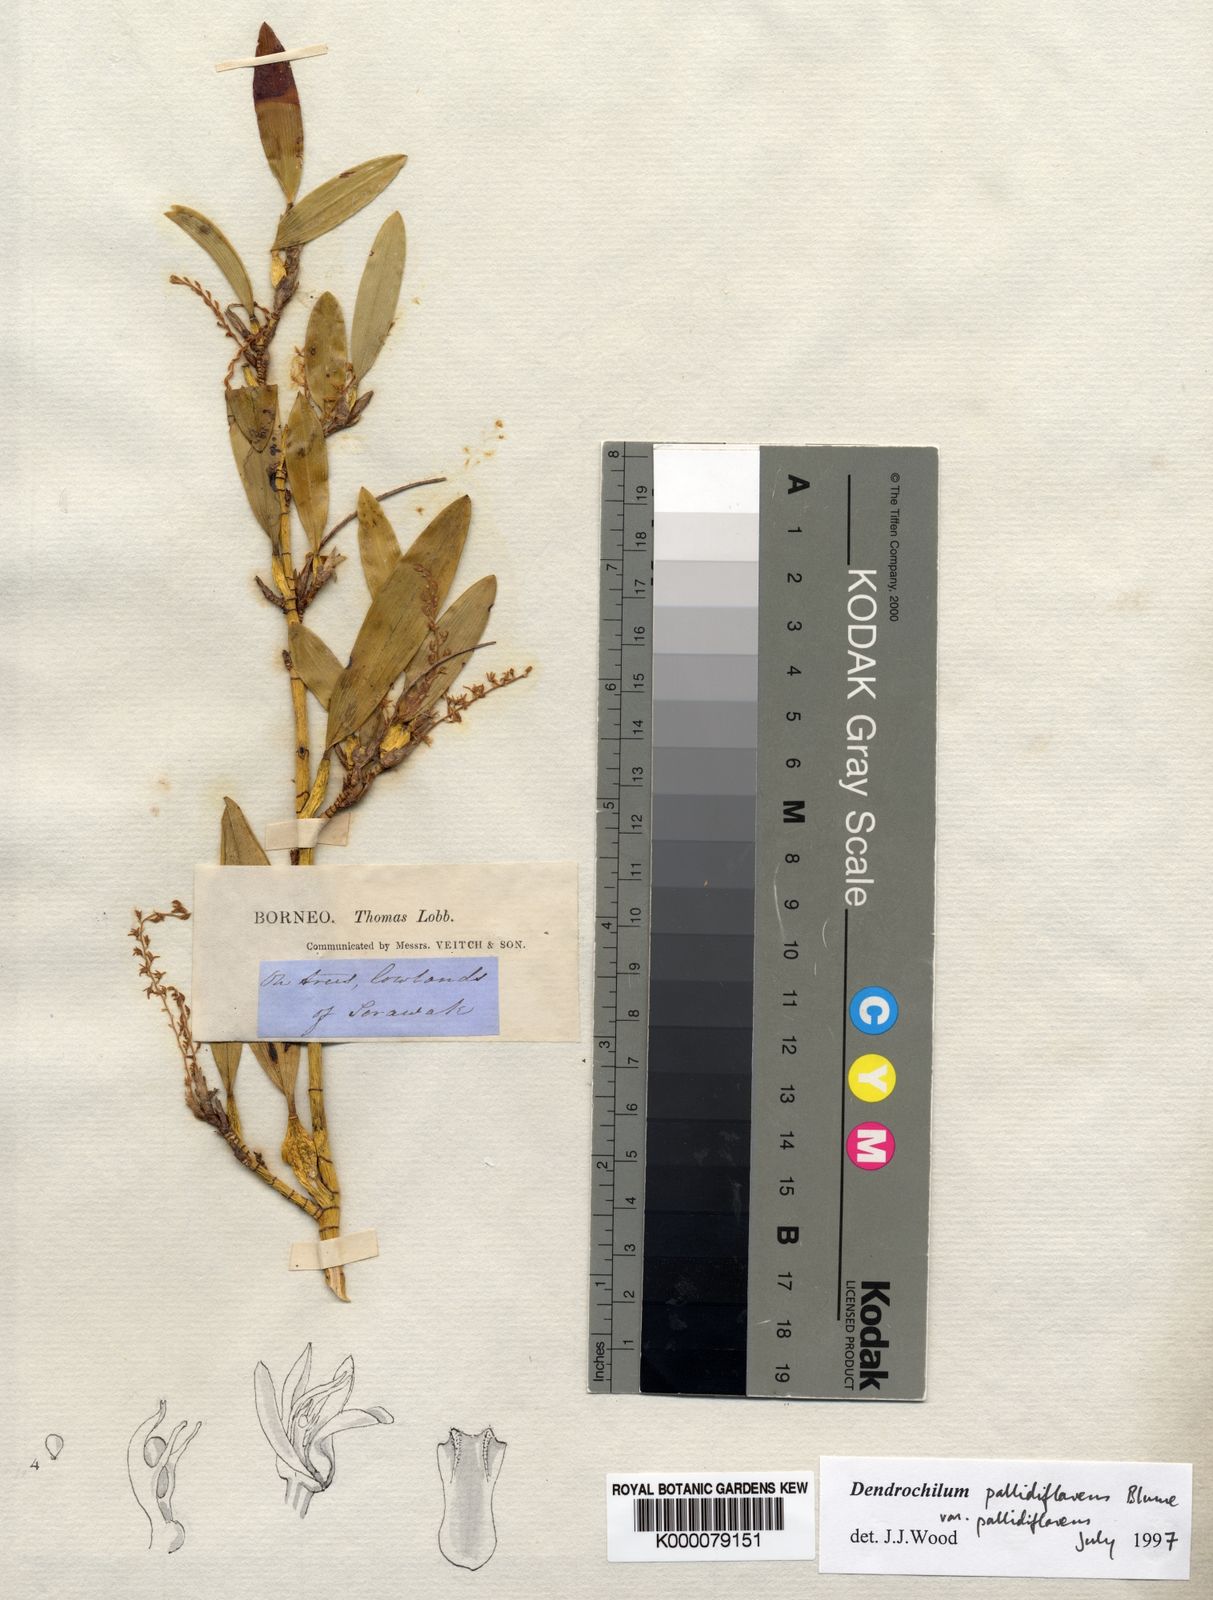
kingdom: Plantae
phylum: Tracheophyta
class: Liliopsida
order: Asparagales
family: Orchidaceae
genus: Coelogyne
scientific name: Coelogyne pallidiflavens
